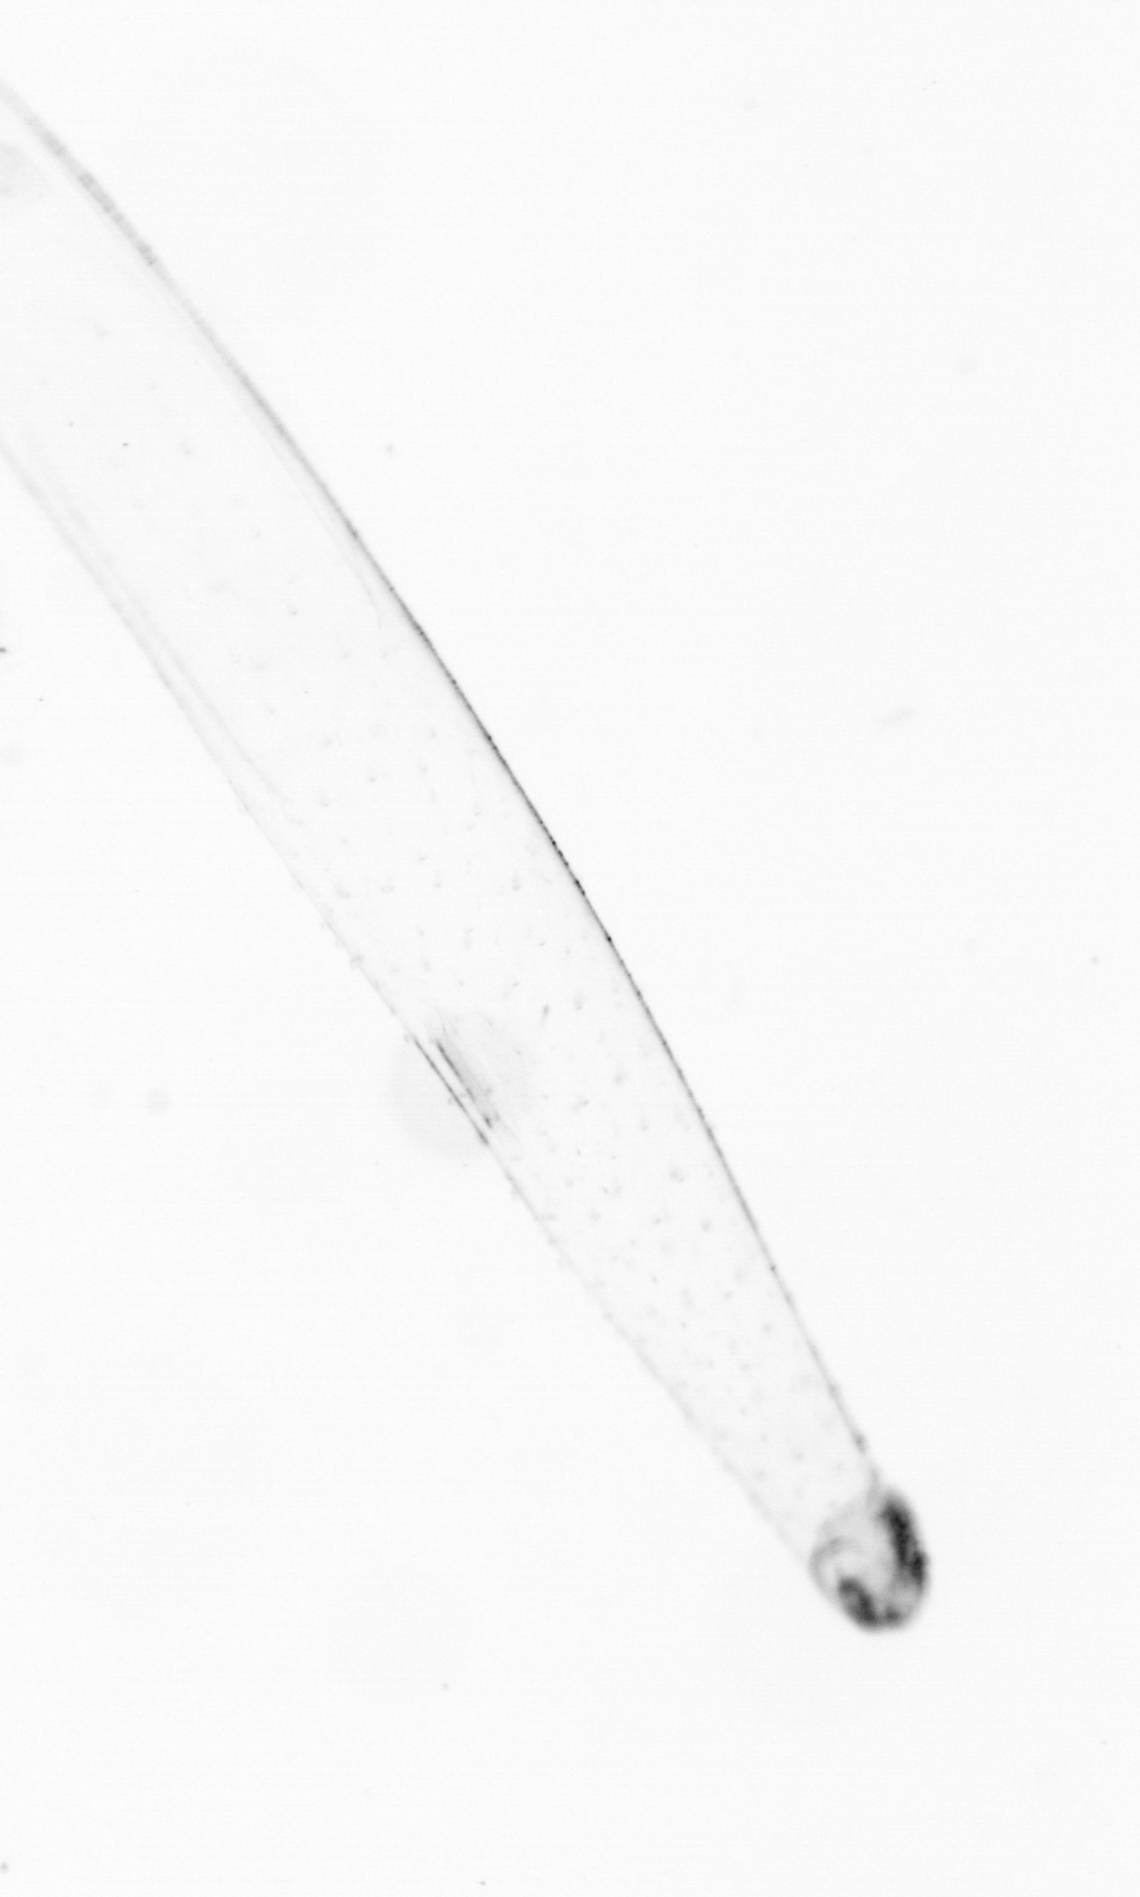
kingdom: Animalia
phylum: Chaetognatha
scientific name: Chaetognatha
